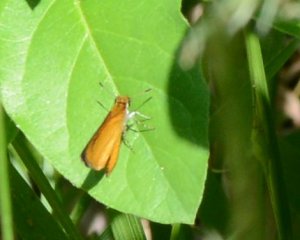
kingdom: Animalia
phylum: Arthropoda
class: Insecta
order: Lepidoptera
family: Hesperiidae
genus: Ancyloxypha
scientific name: Ancyloxypha numitor
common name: Least Skipper
